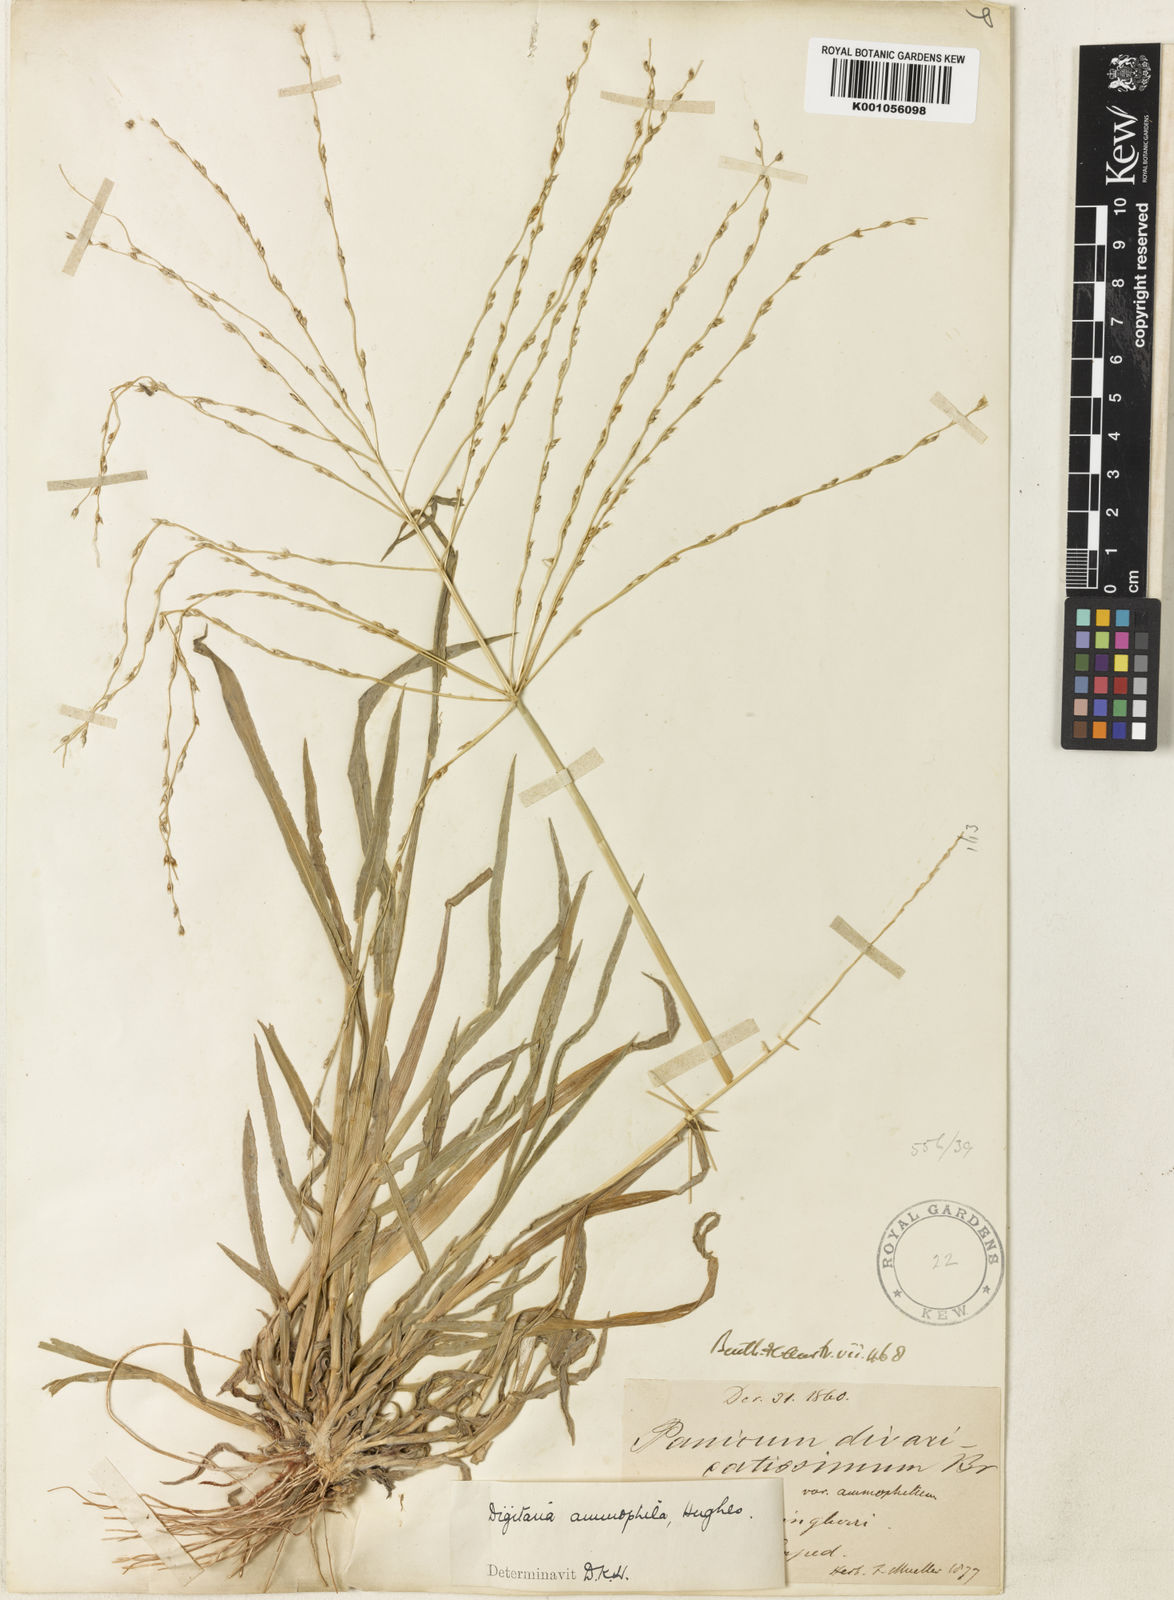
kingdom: Plantae
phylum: Tracheophyta
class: Liliopsida
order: Poales
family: Poaceae
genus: Digitaria
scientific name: Digitaria ammophila
